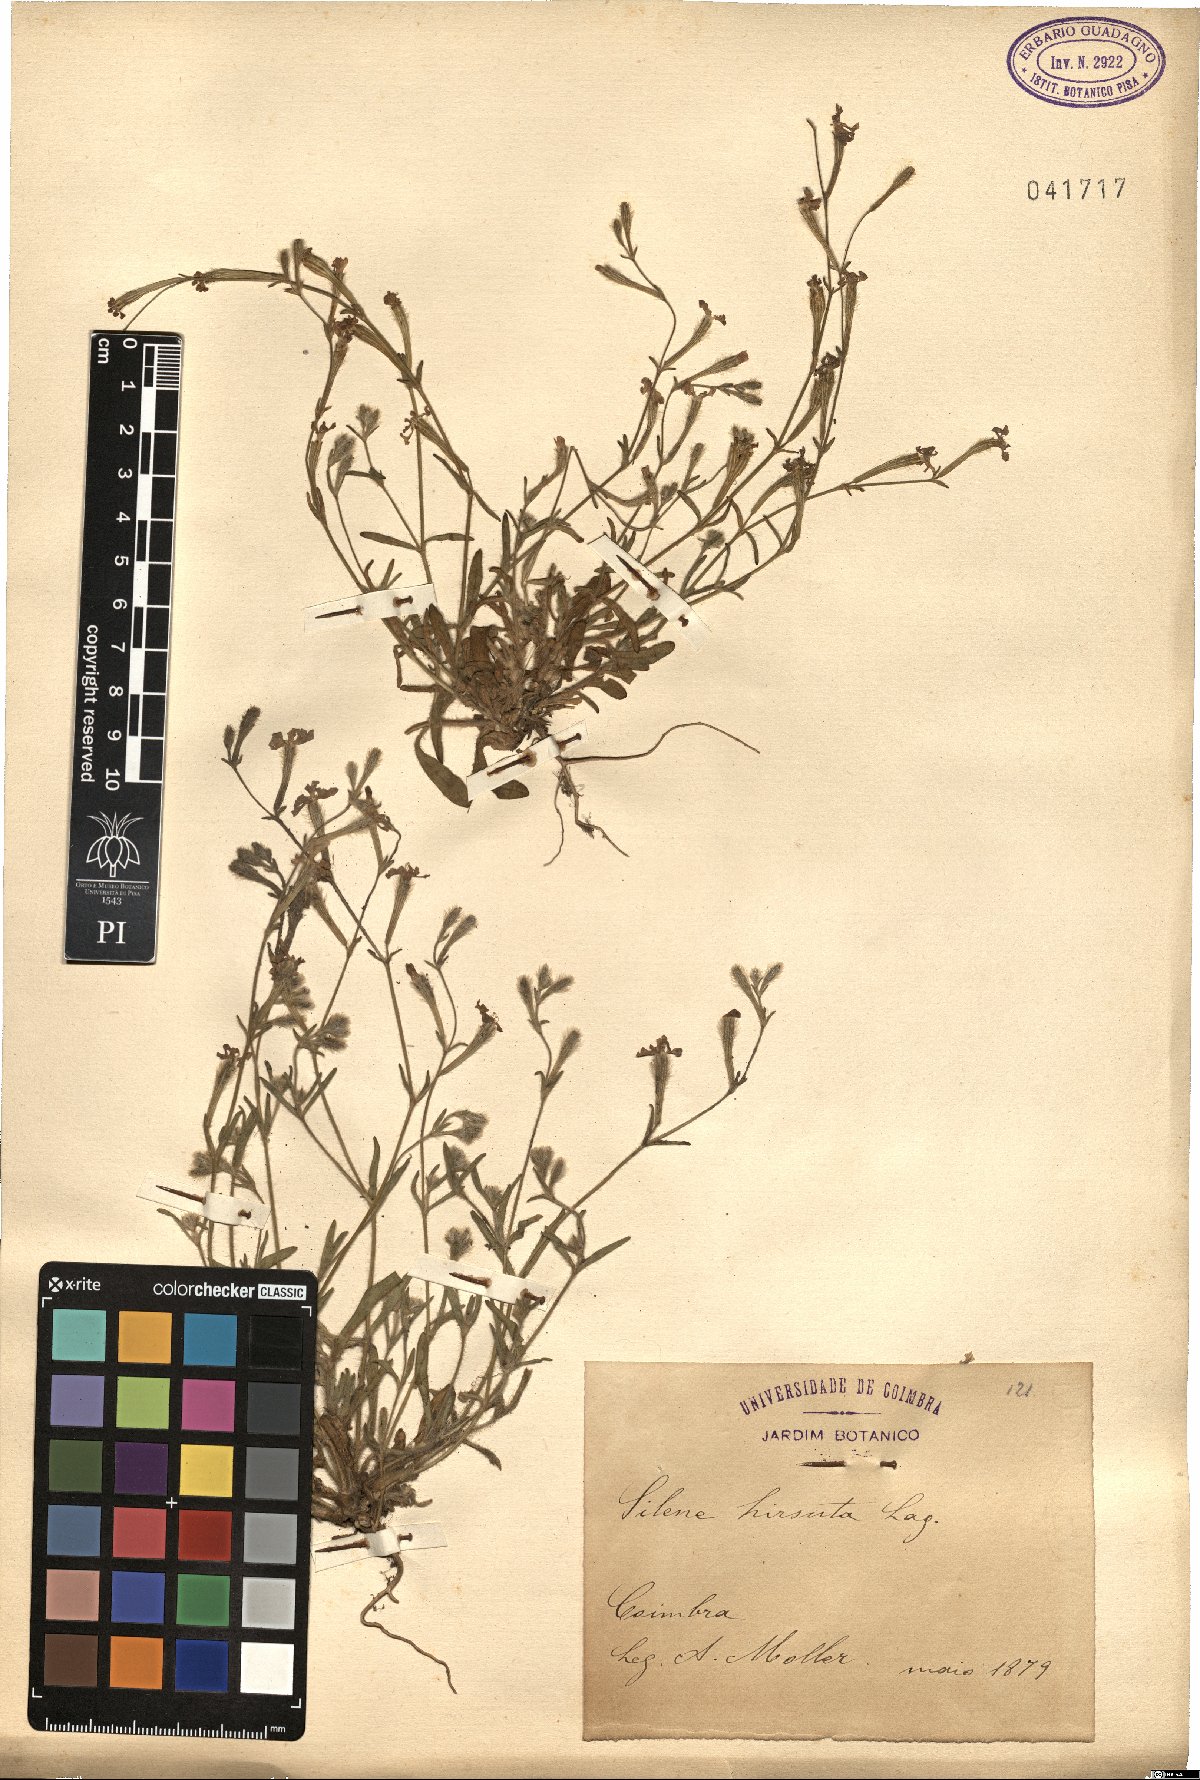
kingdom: Plantae
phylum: Tracheophyta
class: Magnoliopsida
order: Caryophyllales
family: Caryophyllaceae
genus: Silene
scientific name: Silene scabriflora
